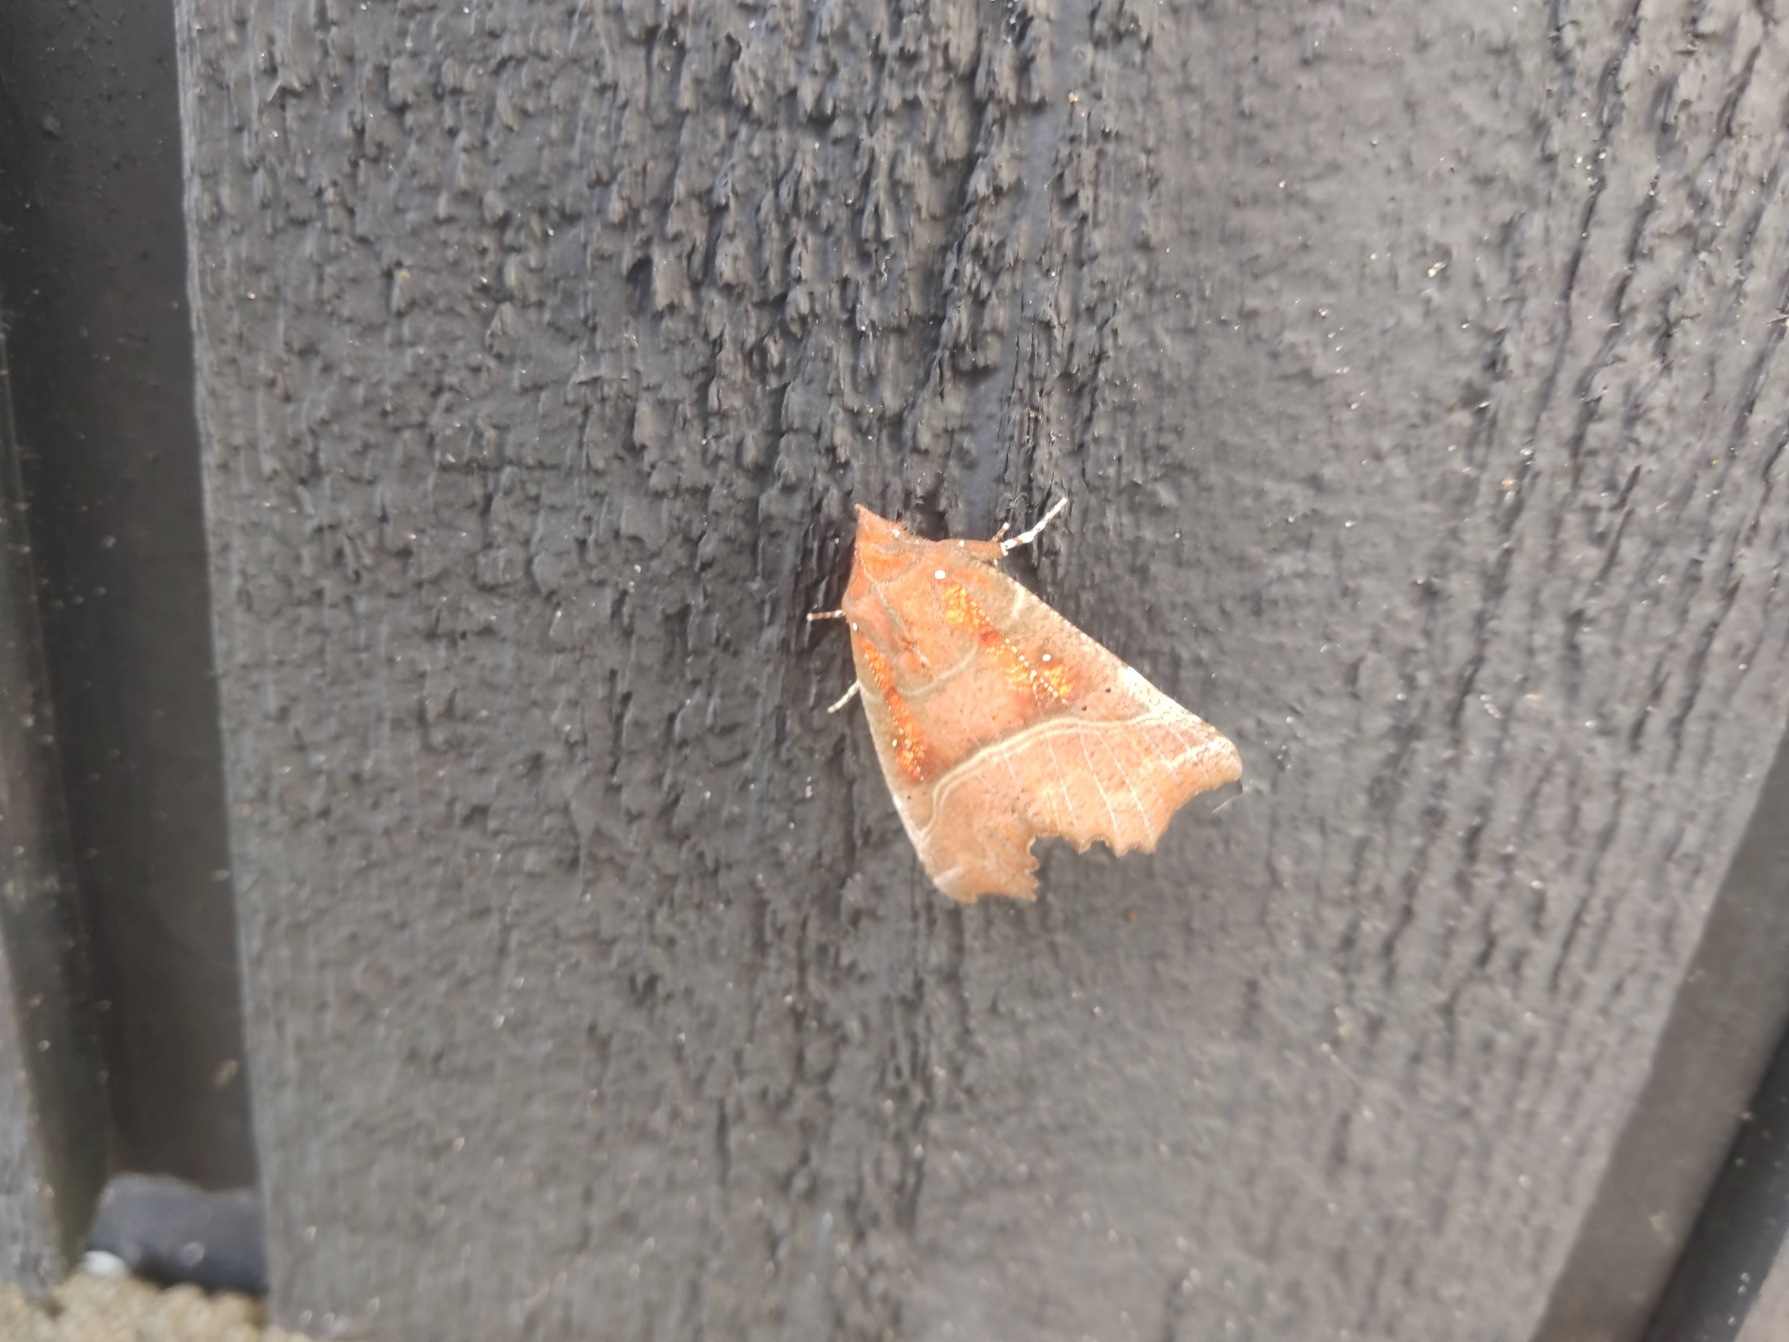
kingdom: Animalia
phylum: Arthropoda
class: Insecta
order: Lepidoptera
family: Erebidae
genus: Scoliopteryx
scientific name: Scoliopteryx libatrix
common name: Husmoderugle
